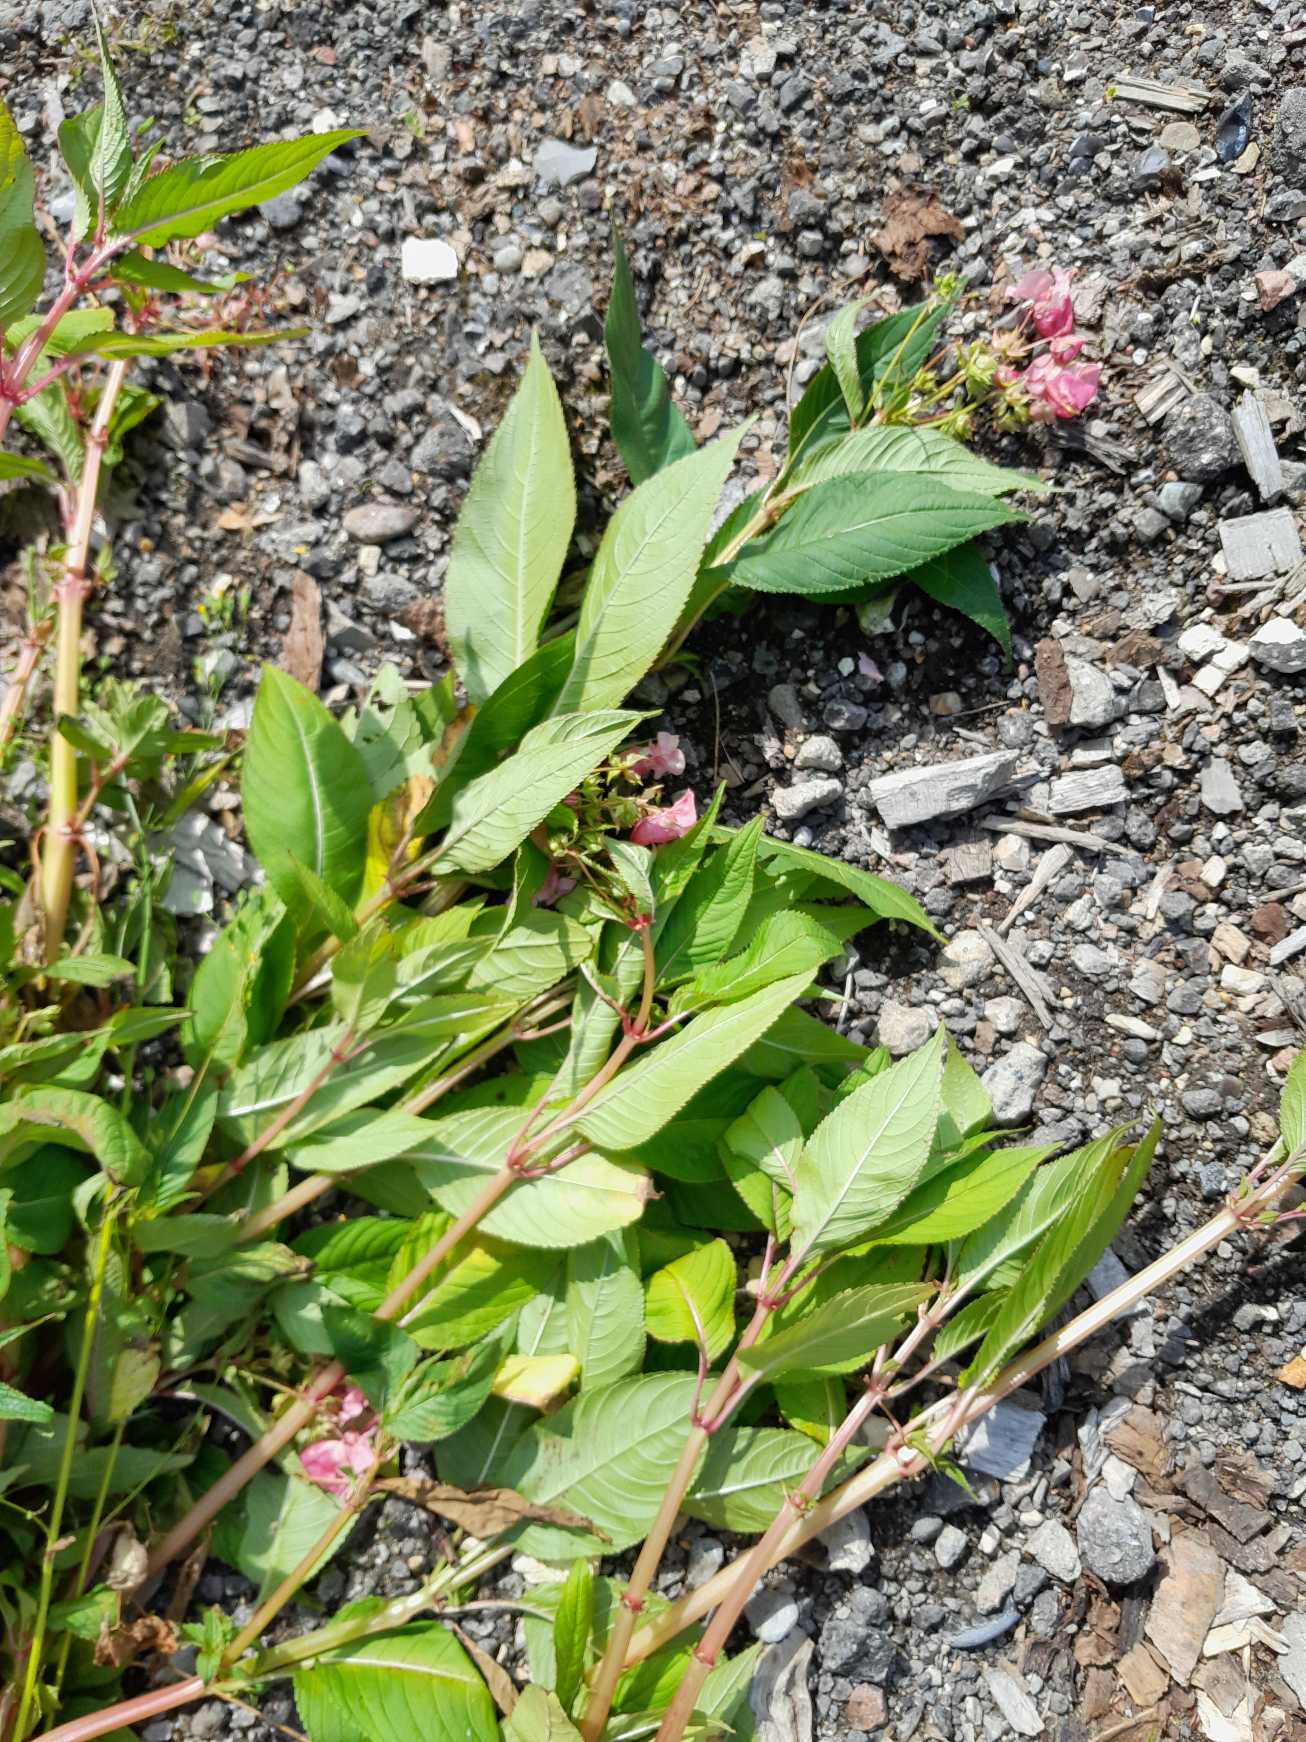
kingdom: Plantae
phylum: Tracheophyta
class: Magnoliopsida
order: Ericales
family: Balsaminaceae
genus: Impatiens
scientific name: Impatiens glandulifera
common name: Kæmpe-balsamin
